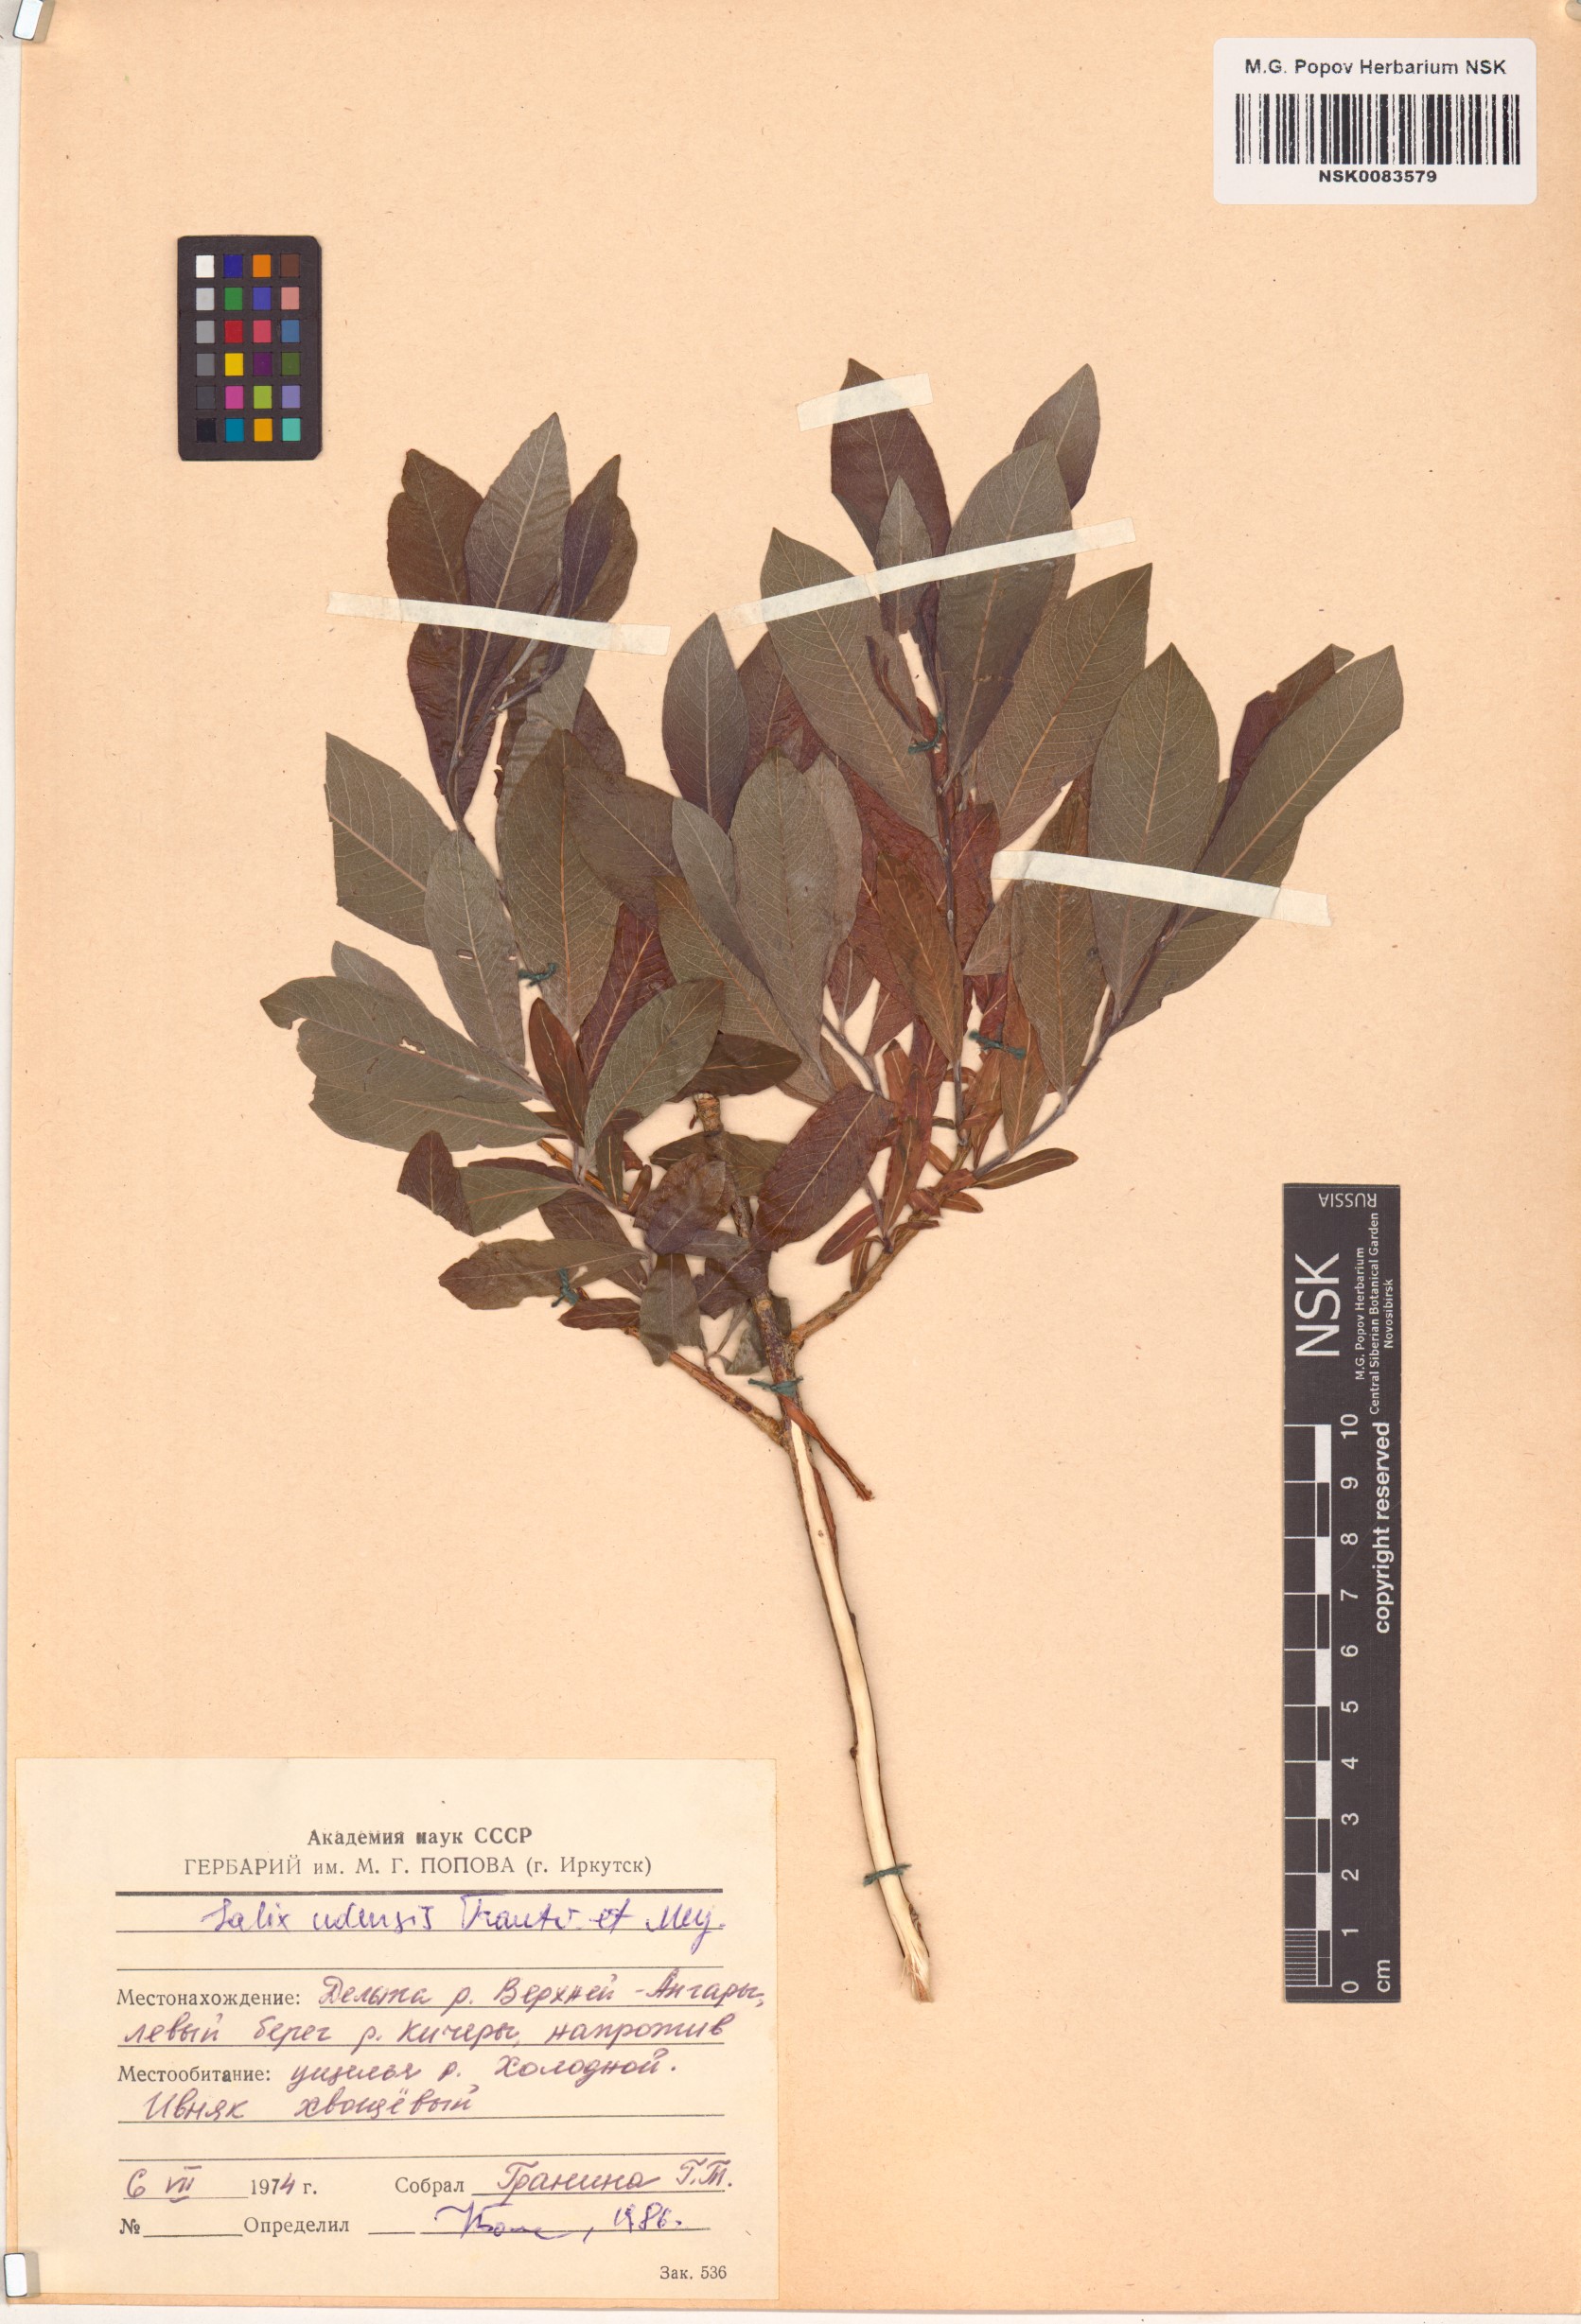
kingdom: Plantae
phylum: Tracheophyta
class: Magnoliopsida
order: Malpighiales
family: Salicaceae
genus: Salix
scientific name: Salix udensis
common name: Sachalin willow
